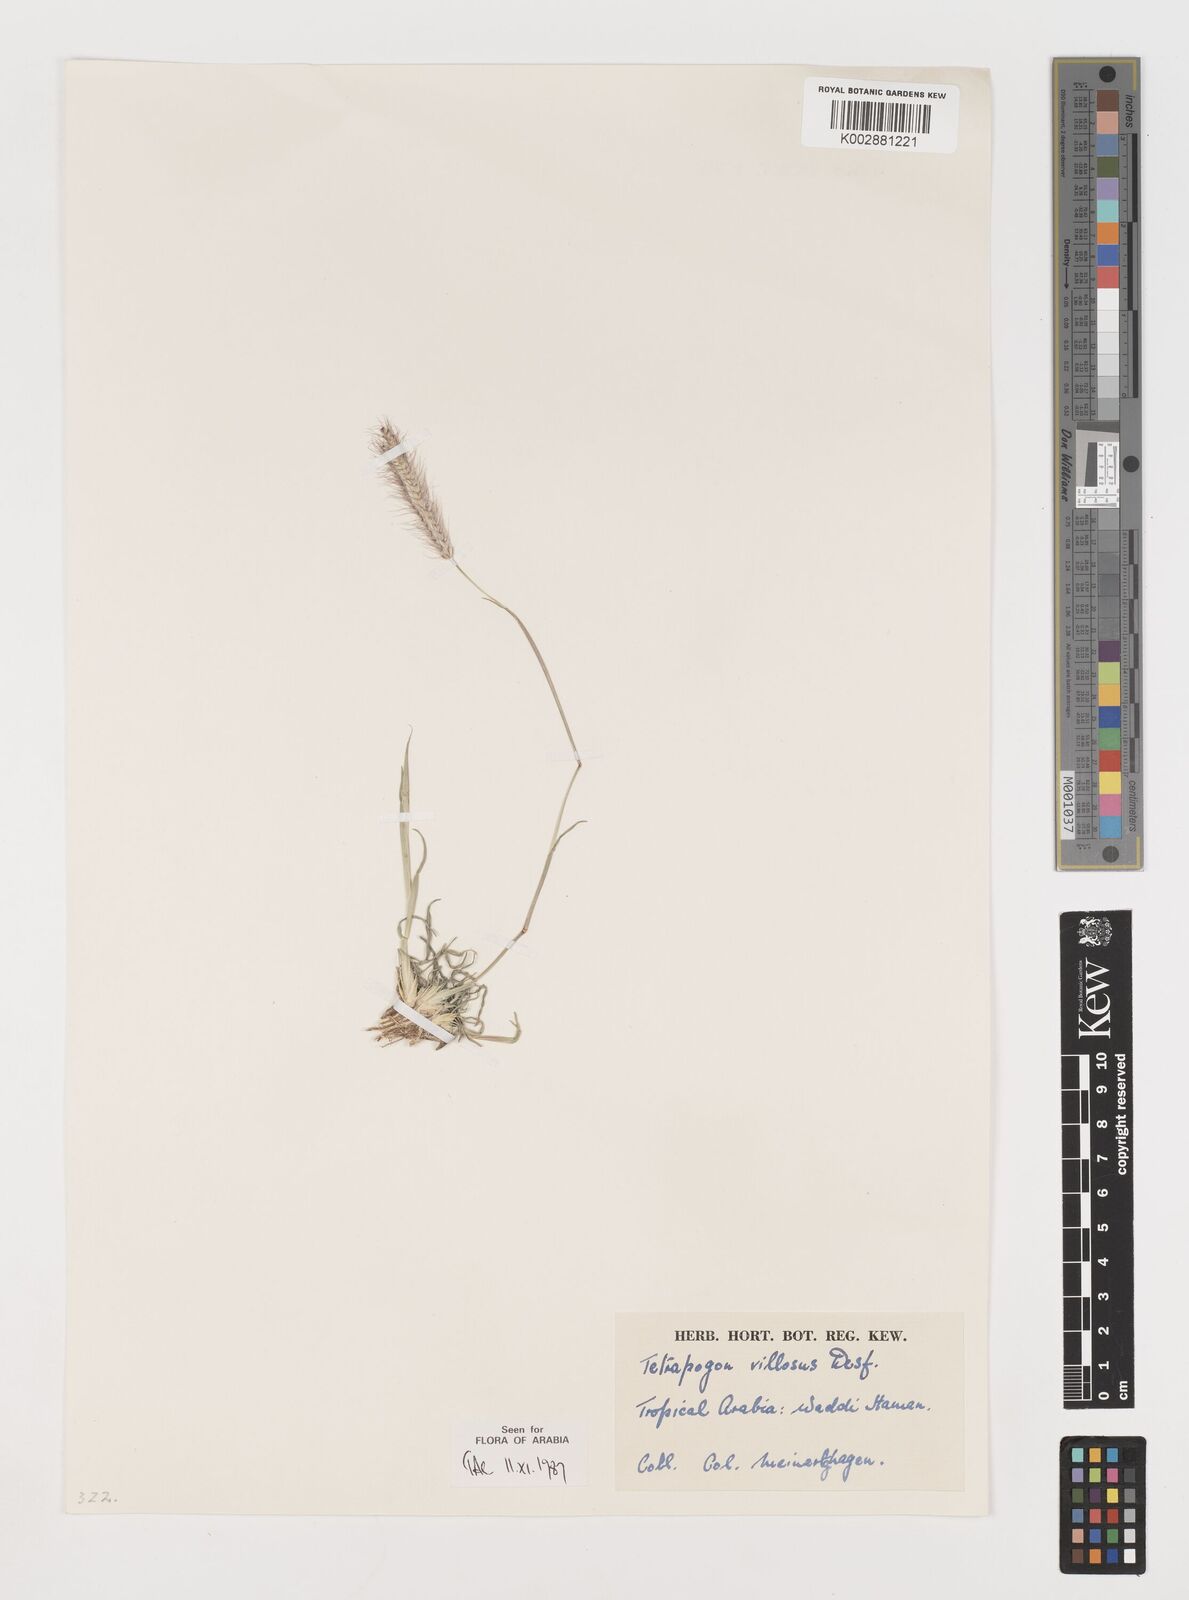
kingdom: Plantae
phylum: Tracheophyta
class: Liliopsida
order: Poales
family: Poaceae
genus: Tetrapogon
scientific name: Tetrapogon villosus
